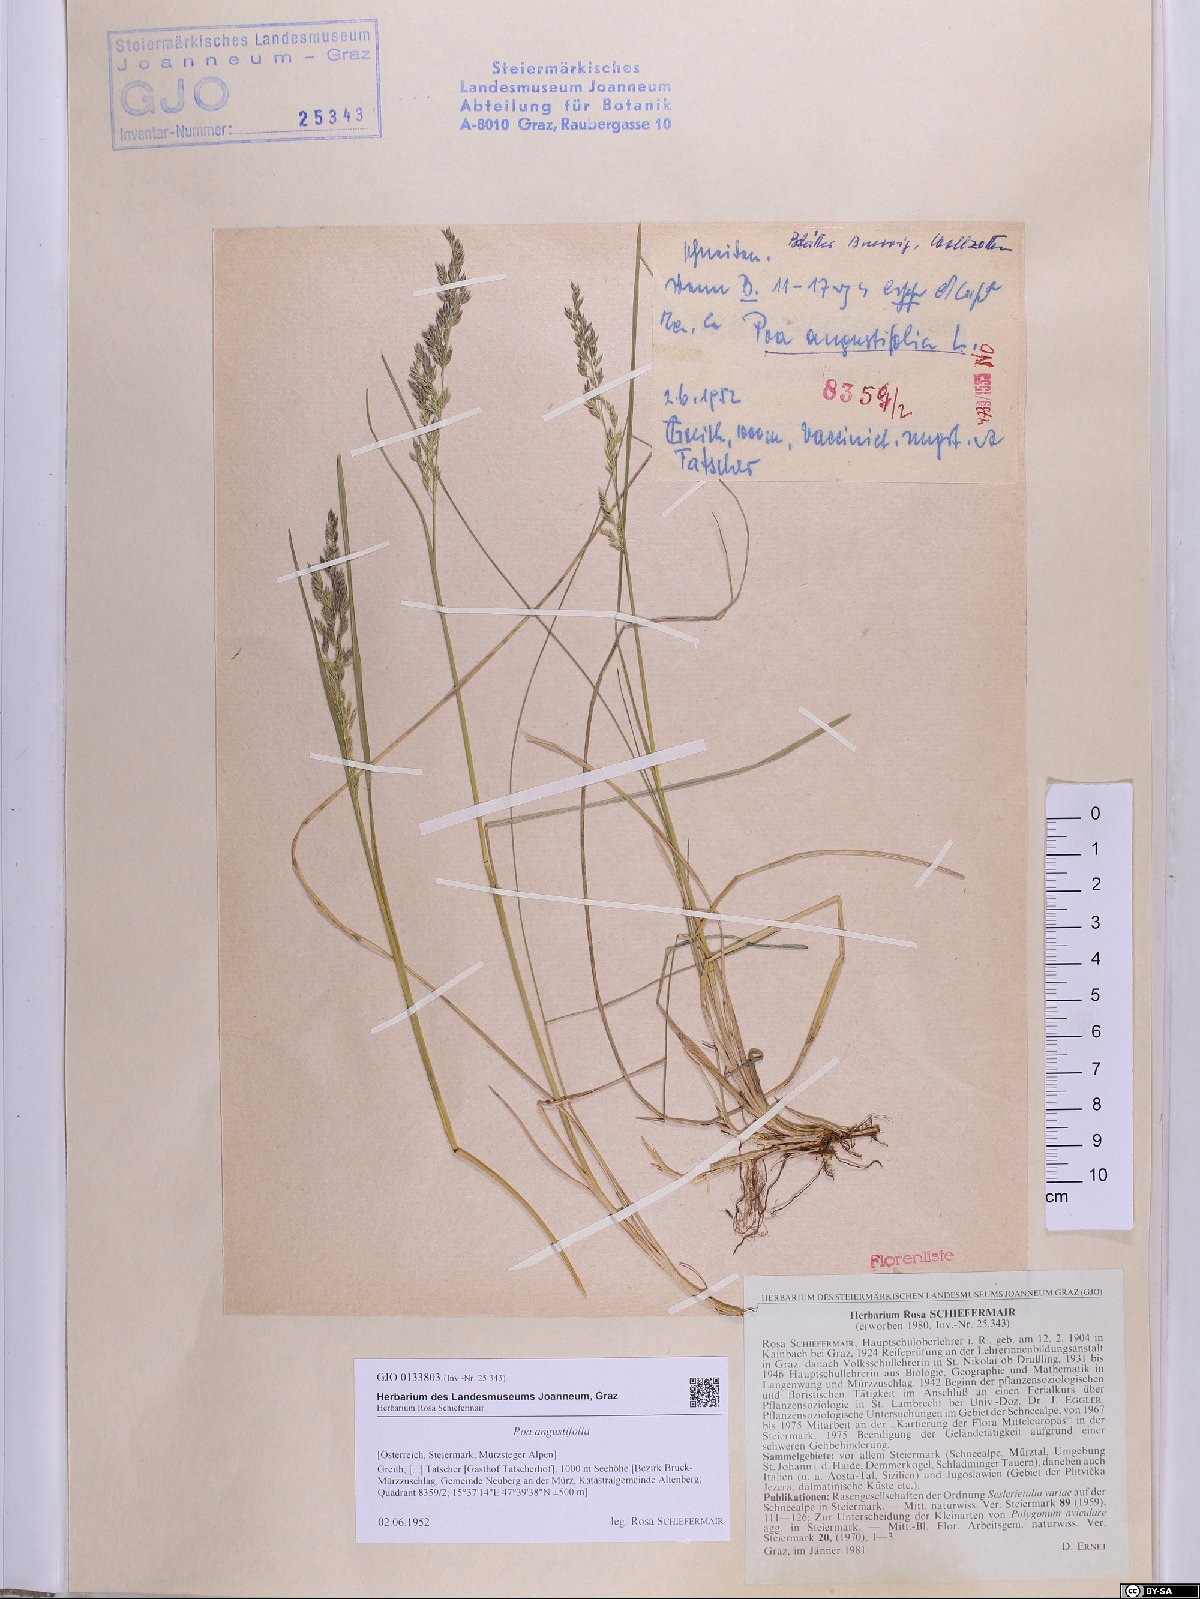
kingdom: Plantae
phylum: Tracheophyta
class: Liliopsida
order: Poales
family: Poaceae
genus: Poa
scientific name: Poa angustifolia
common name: Narrow-leaved meadow-grass
